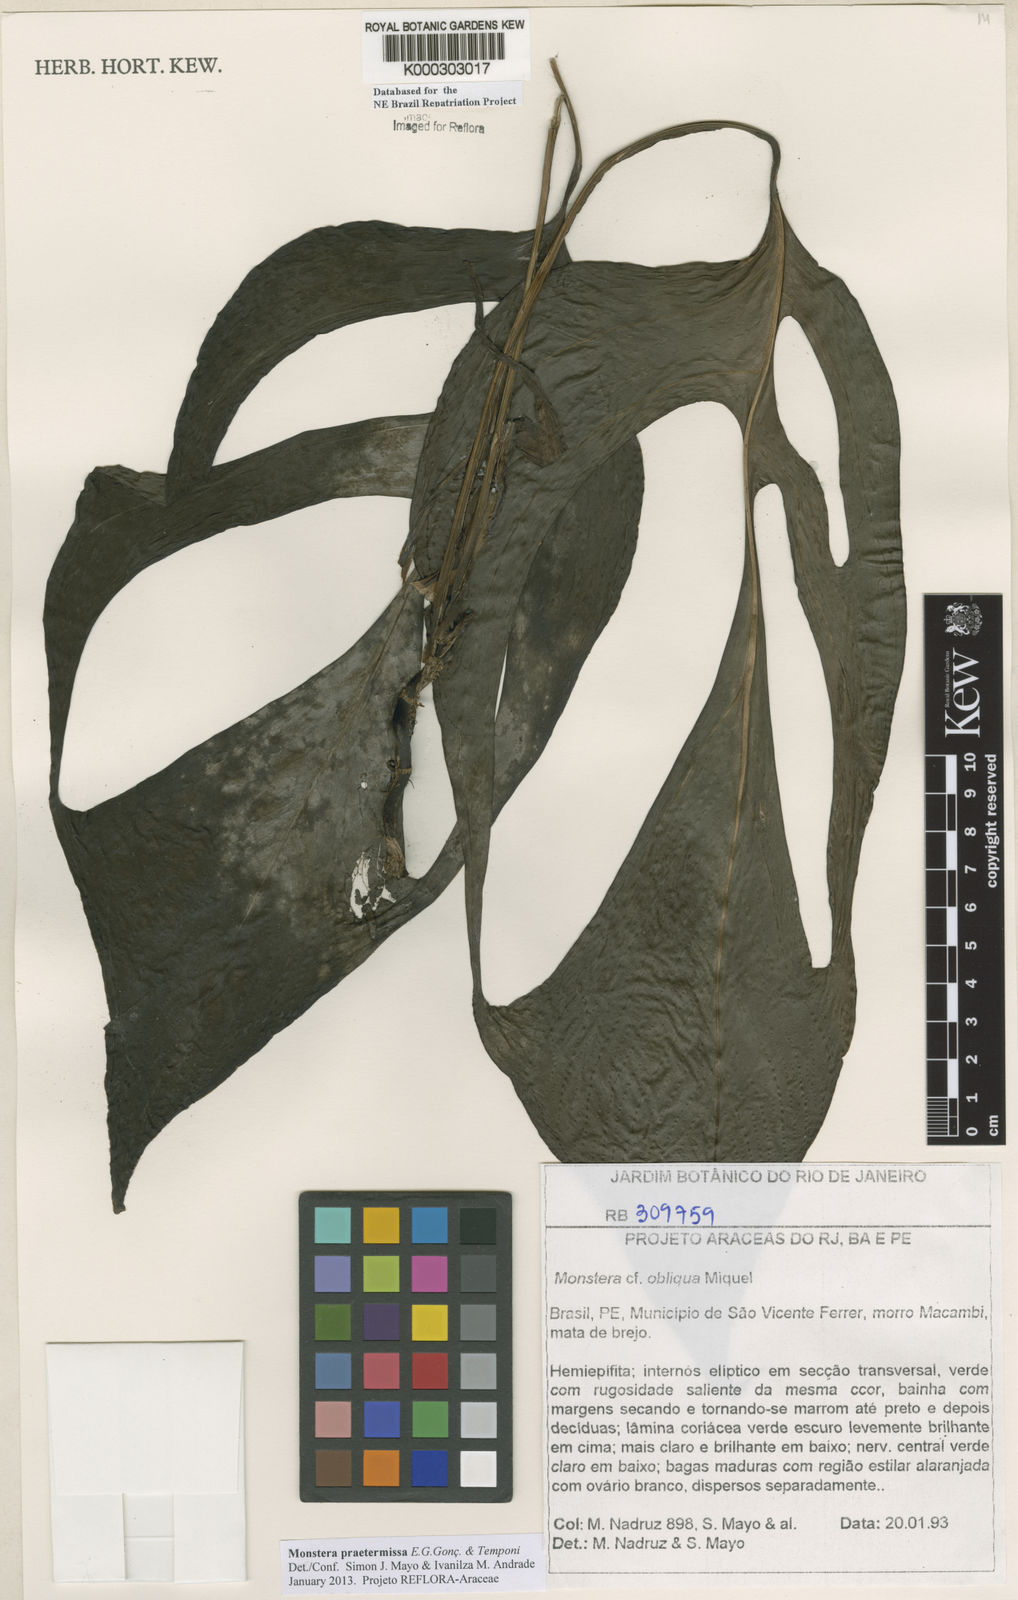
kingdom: Plantae
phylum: Tracheophyta
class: Liliopsida
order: Alismatales
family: Araceae
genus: Monstera
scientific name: Monstera obliqua
